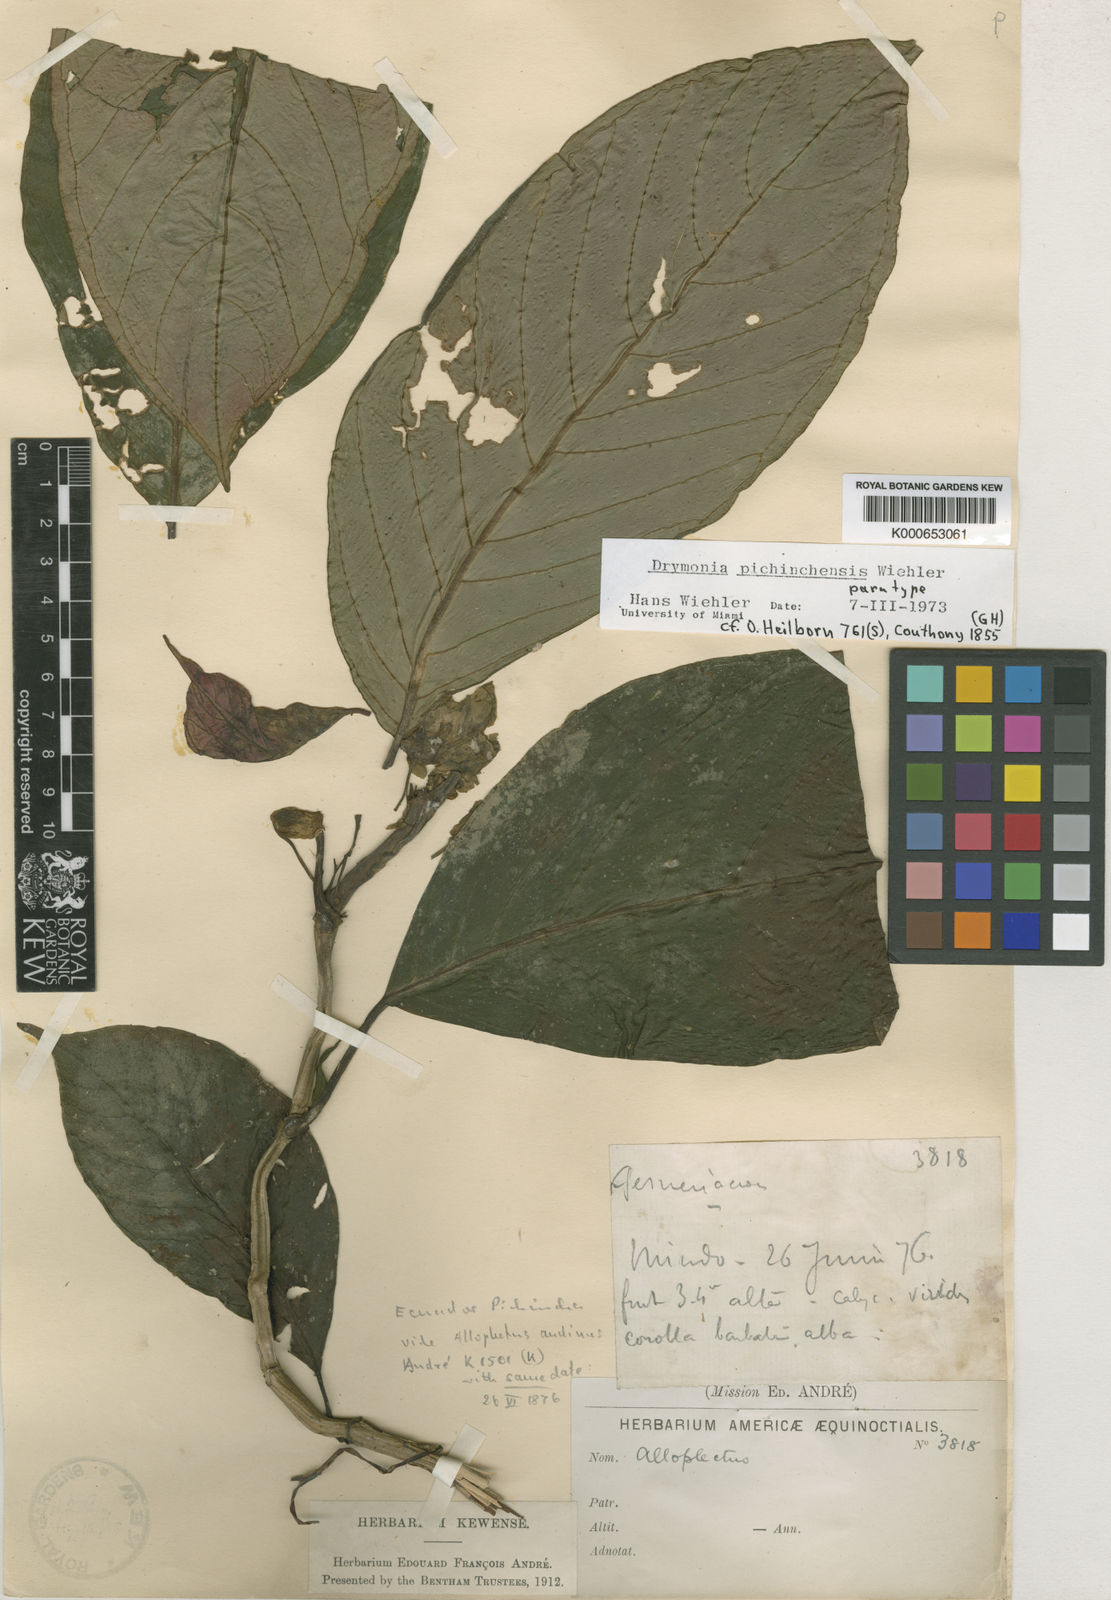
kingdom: Plantae
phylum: Tracheophyta
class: Magnoliopsida
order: Lamiales
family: Gesneriaceae
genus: Drymonia
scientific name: Drymonia
